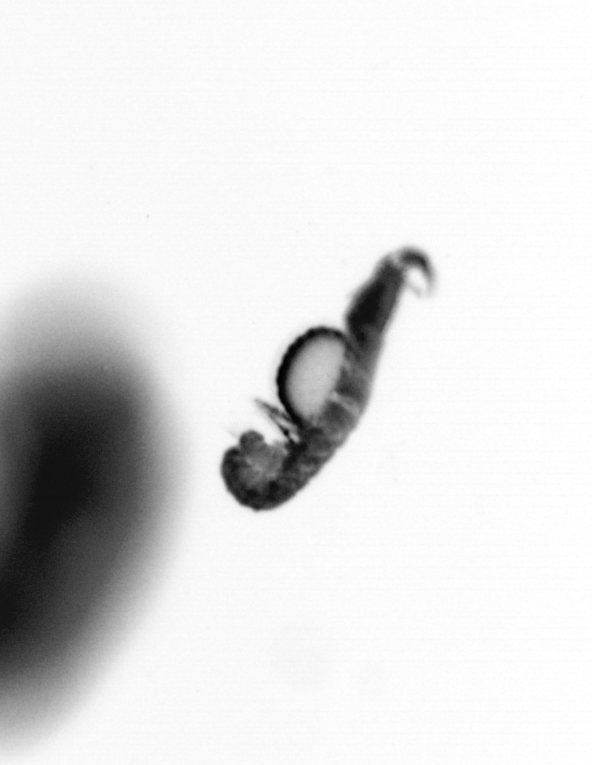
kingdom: Animalia
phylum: Annelida
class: Polychaeta
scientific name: Polychaeta
